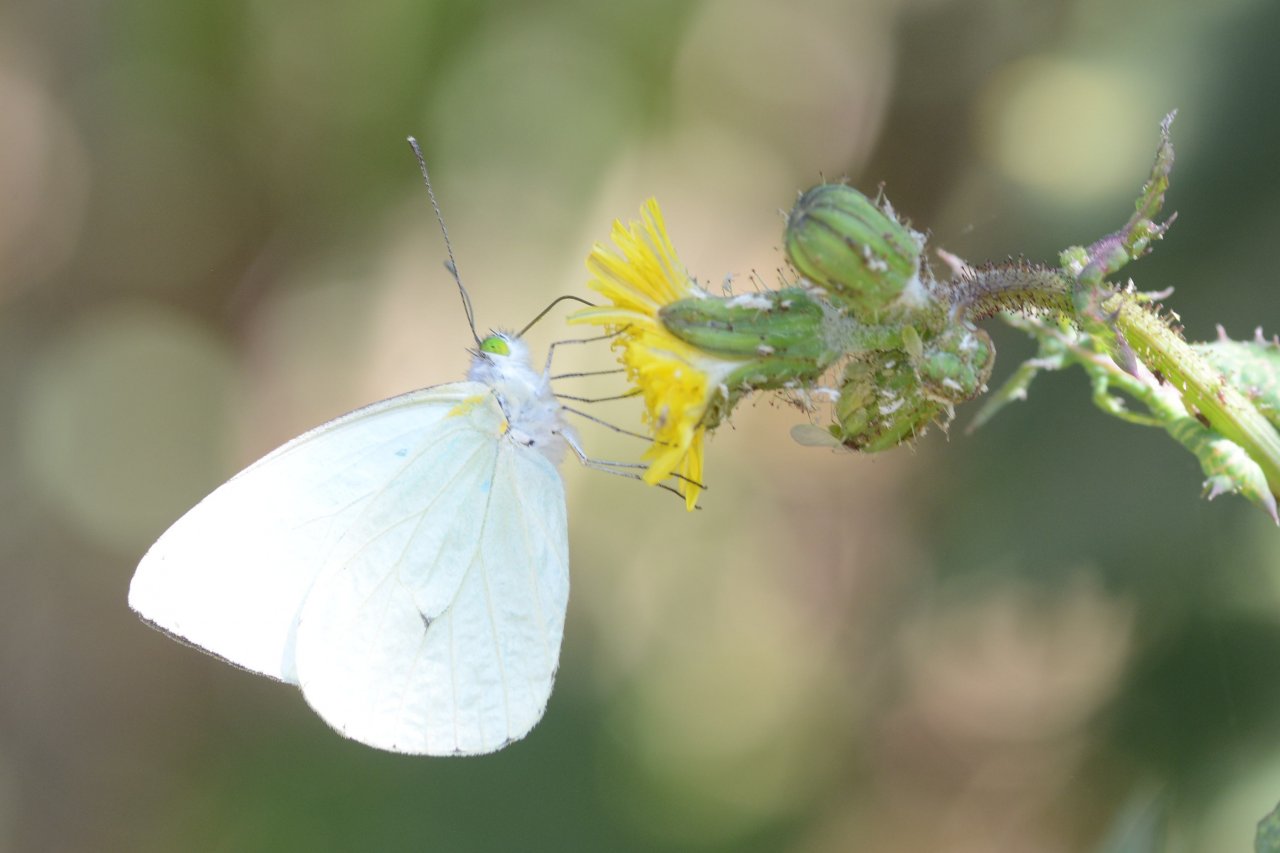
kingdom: Animalia
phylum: Arthropoda
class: Insecta
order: Lepidoptera
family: Nymphalidae
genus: Junonia
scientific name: Junonia evarete
